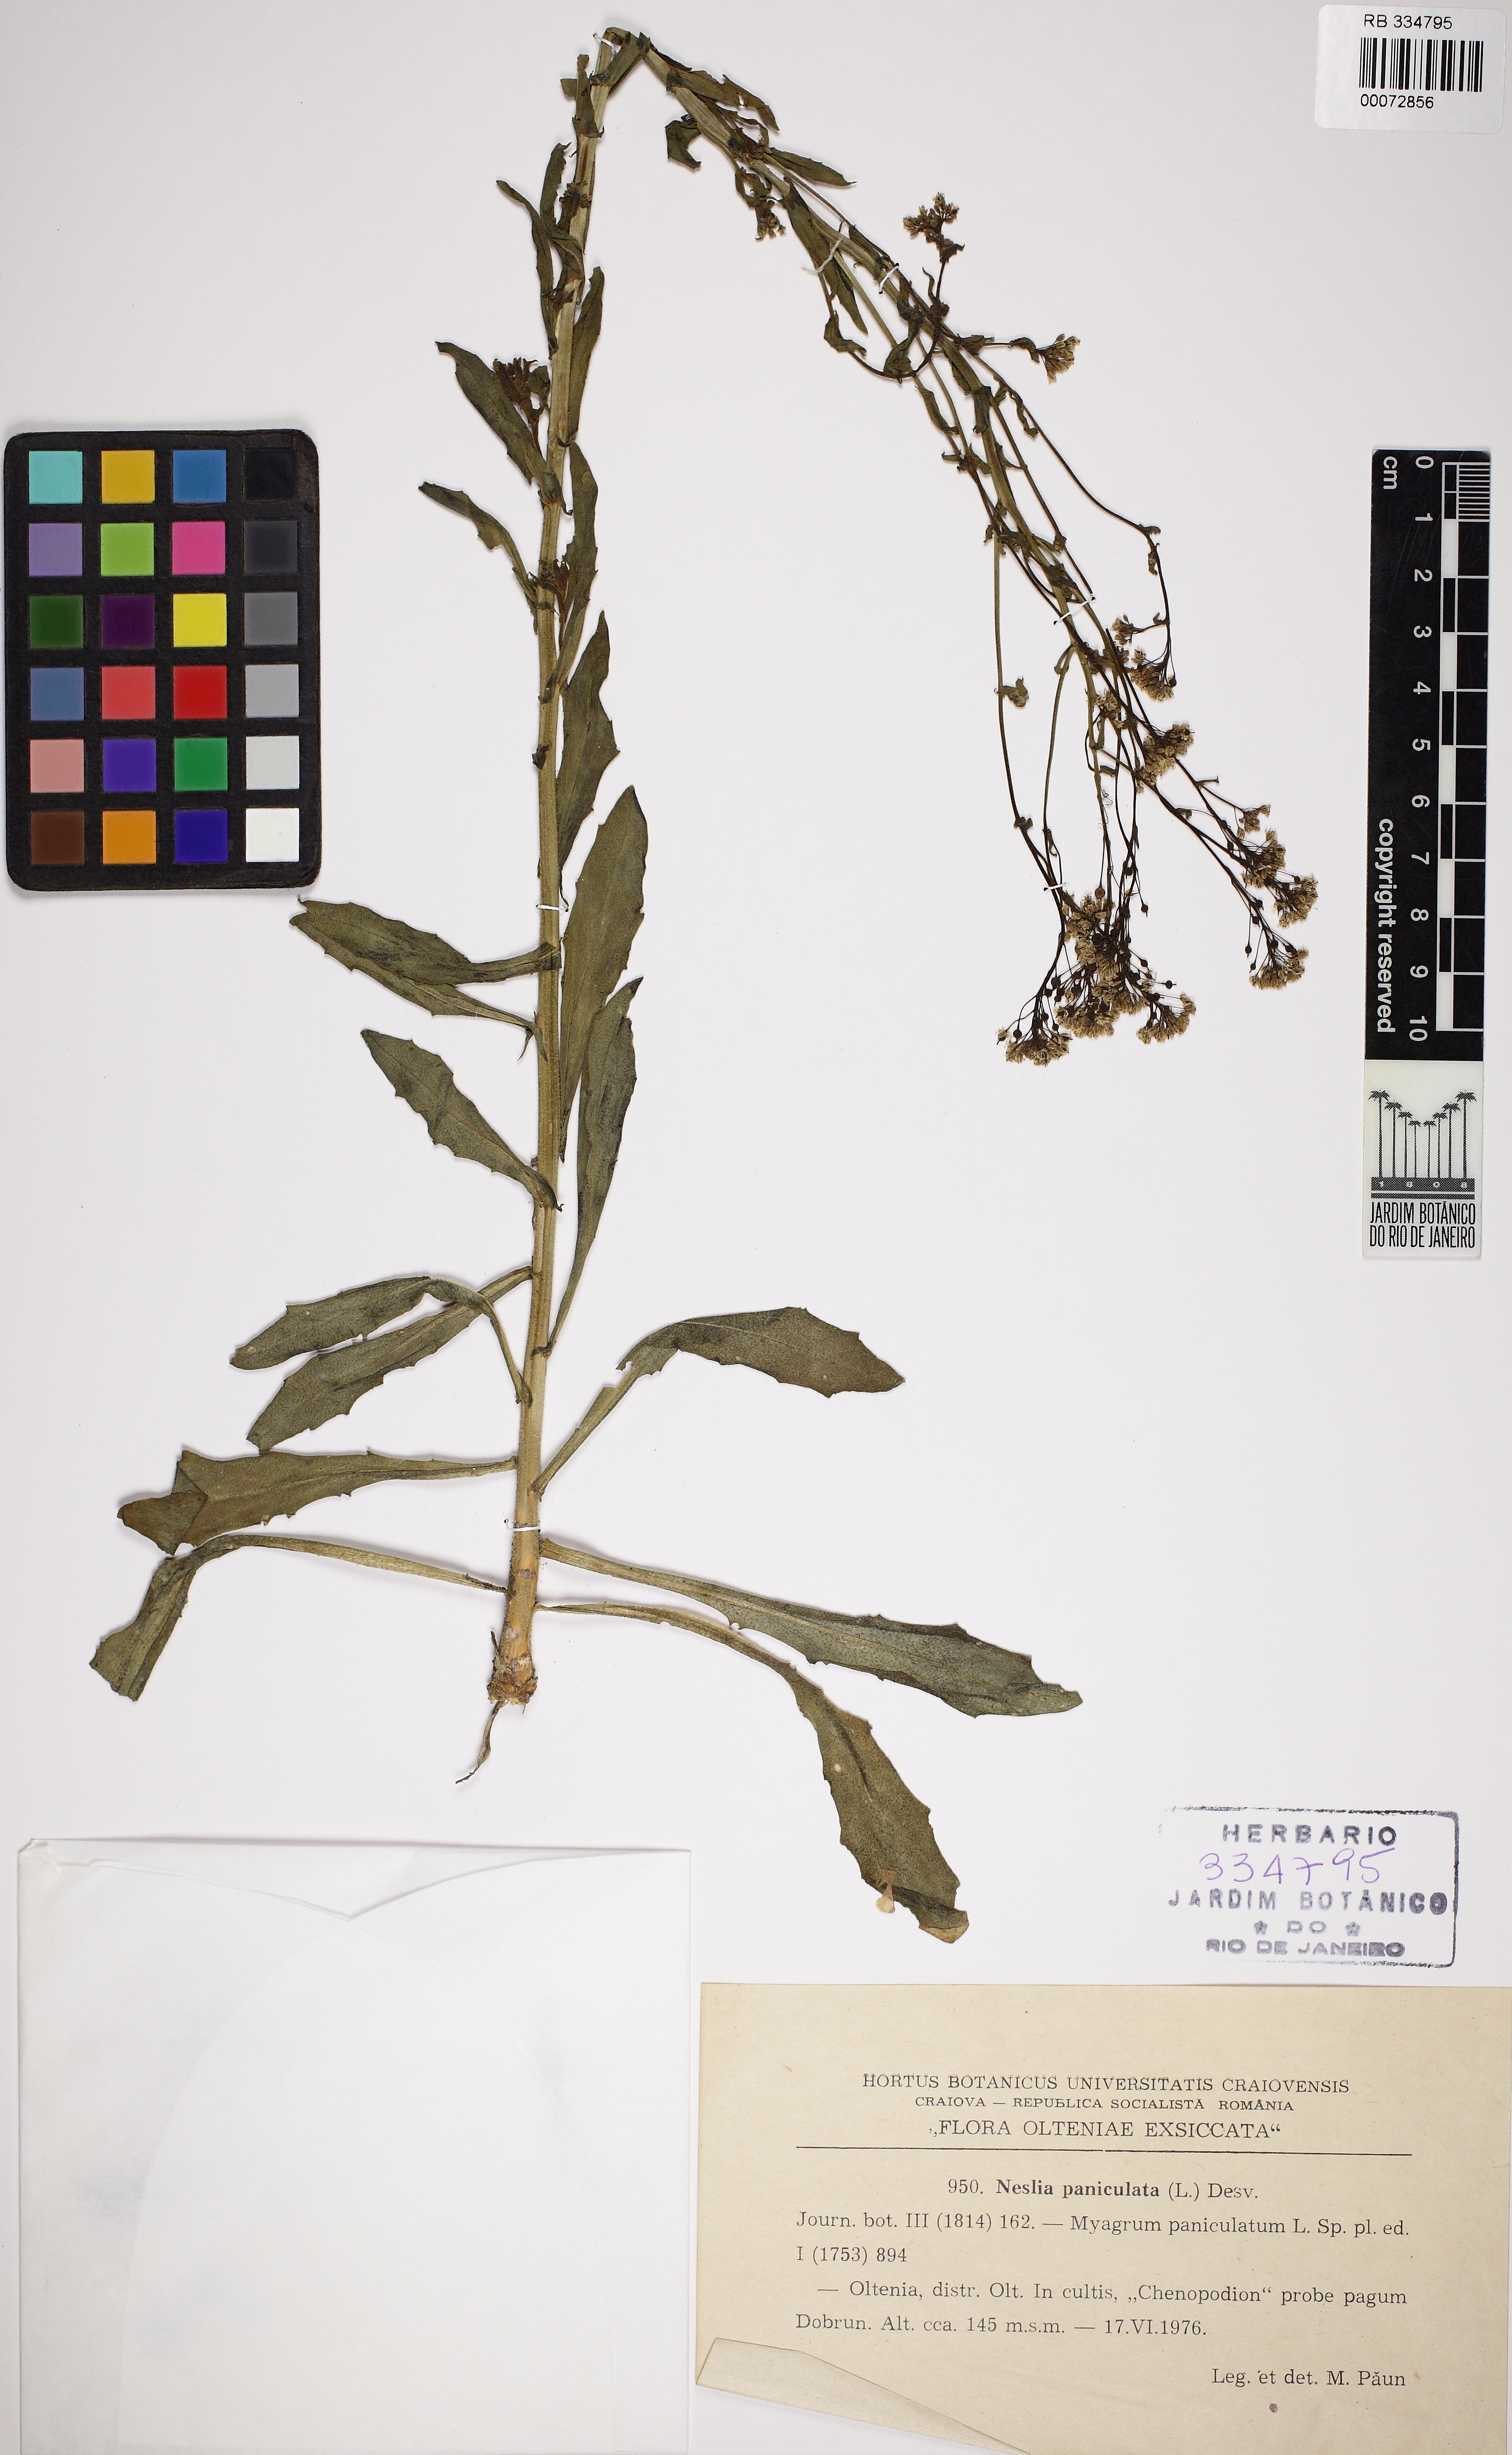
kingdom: Plantae
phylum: Tracheophyta
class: Magnoliopsida
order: Brassicales
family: Brassicaceae
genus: Neslia
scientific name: Neslia paniculata
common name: Ball mustard
